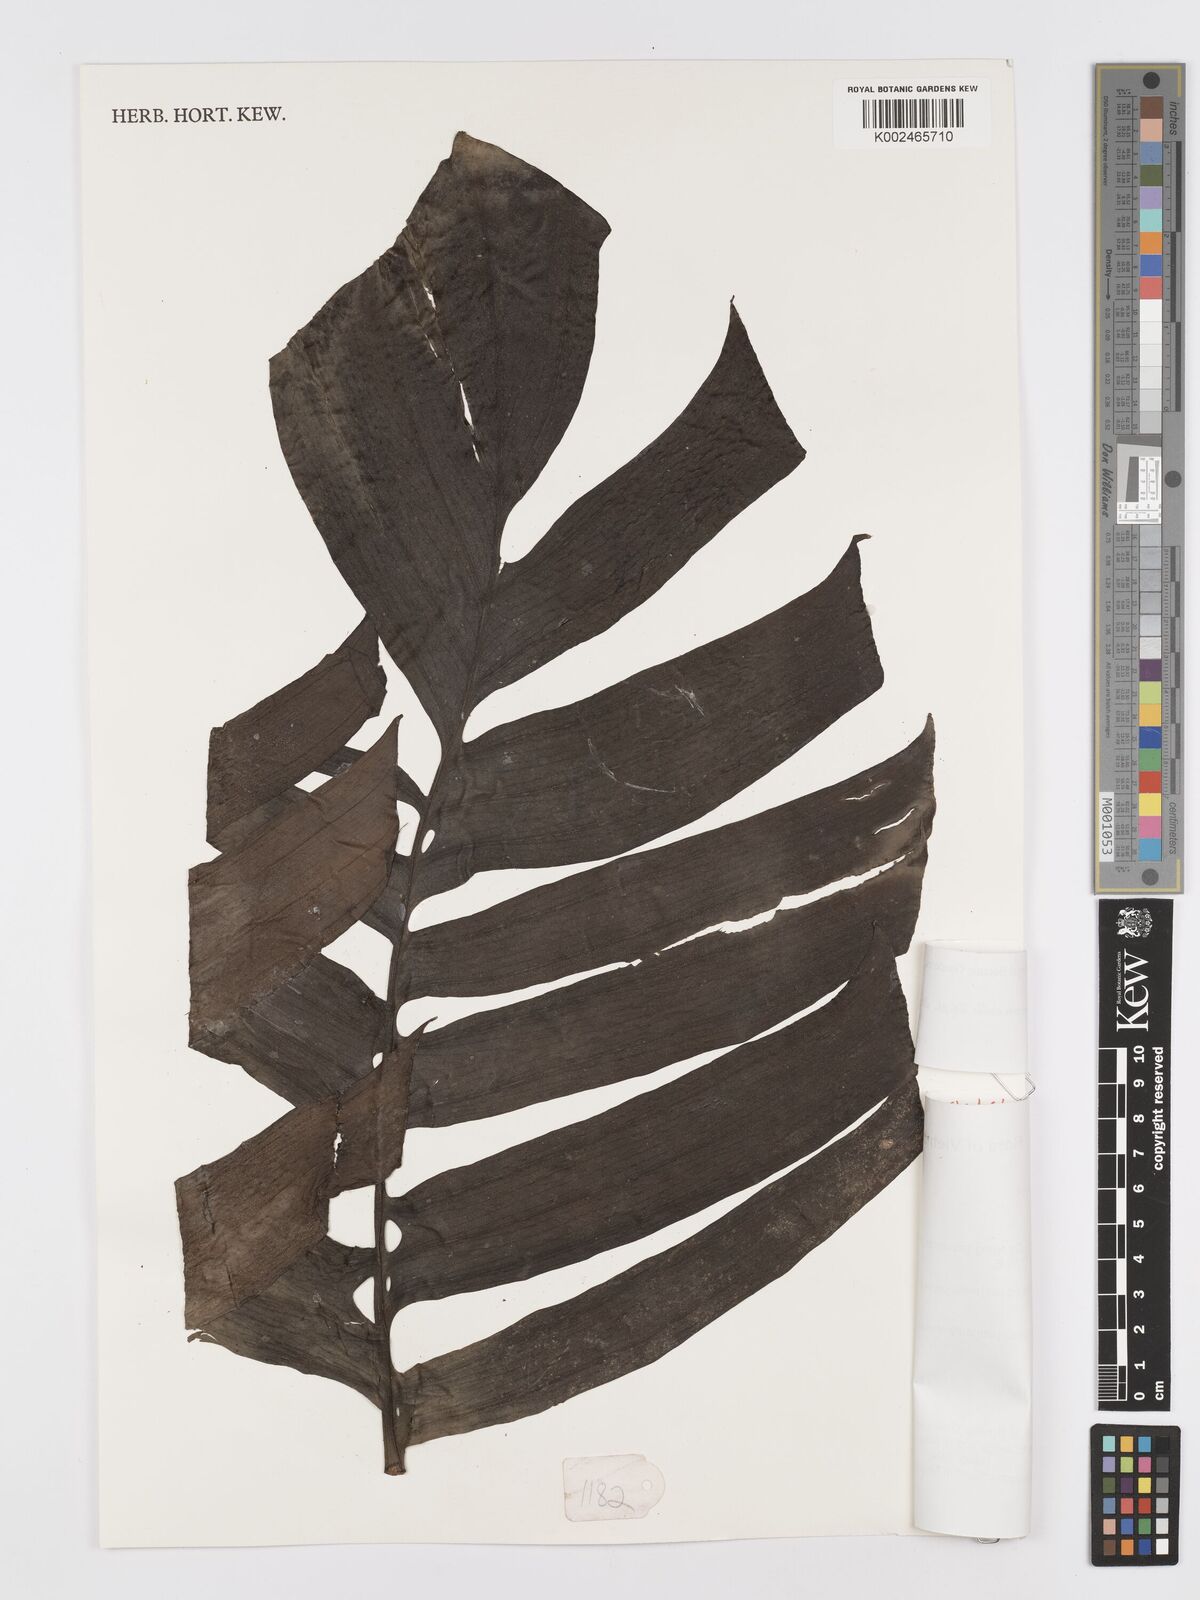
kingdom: Plantae
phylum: Tracheophyta
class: Liliopsida
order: Alismatales
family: Araceae
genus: Rhaphidophora
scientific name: Rhaphidophora crassicaulis
